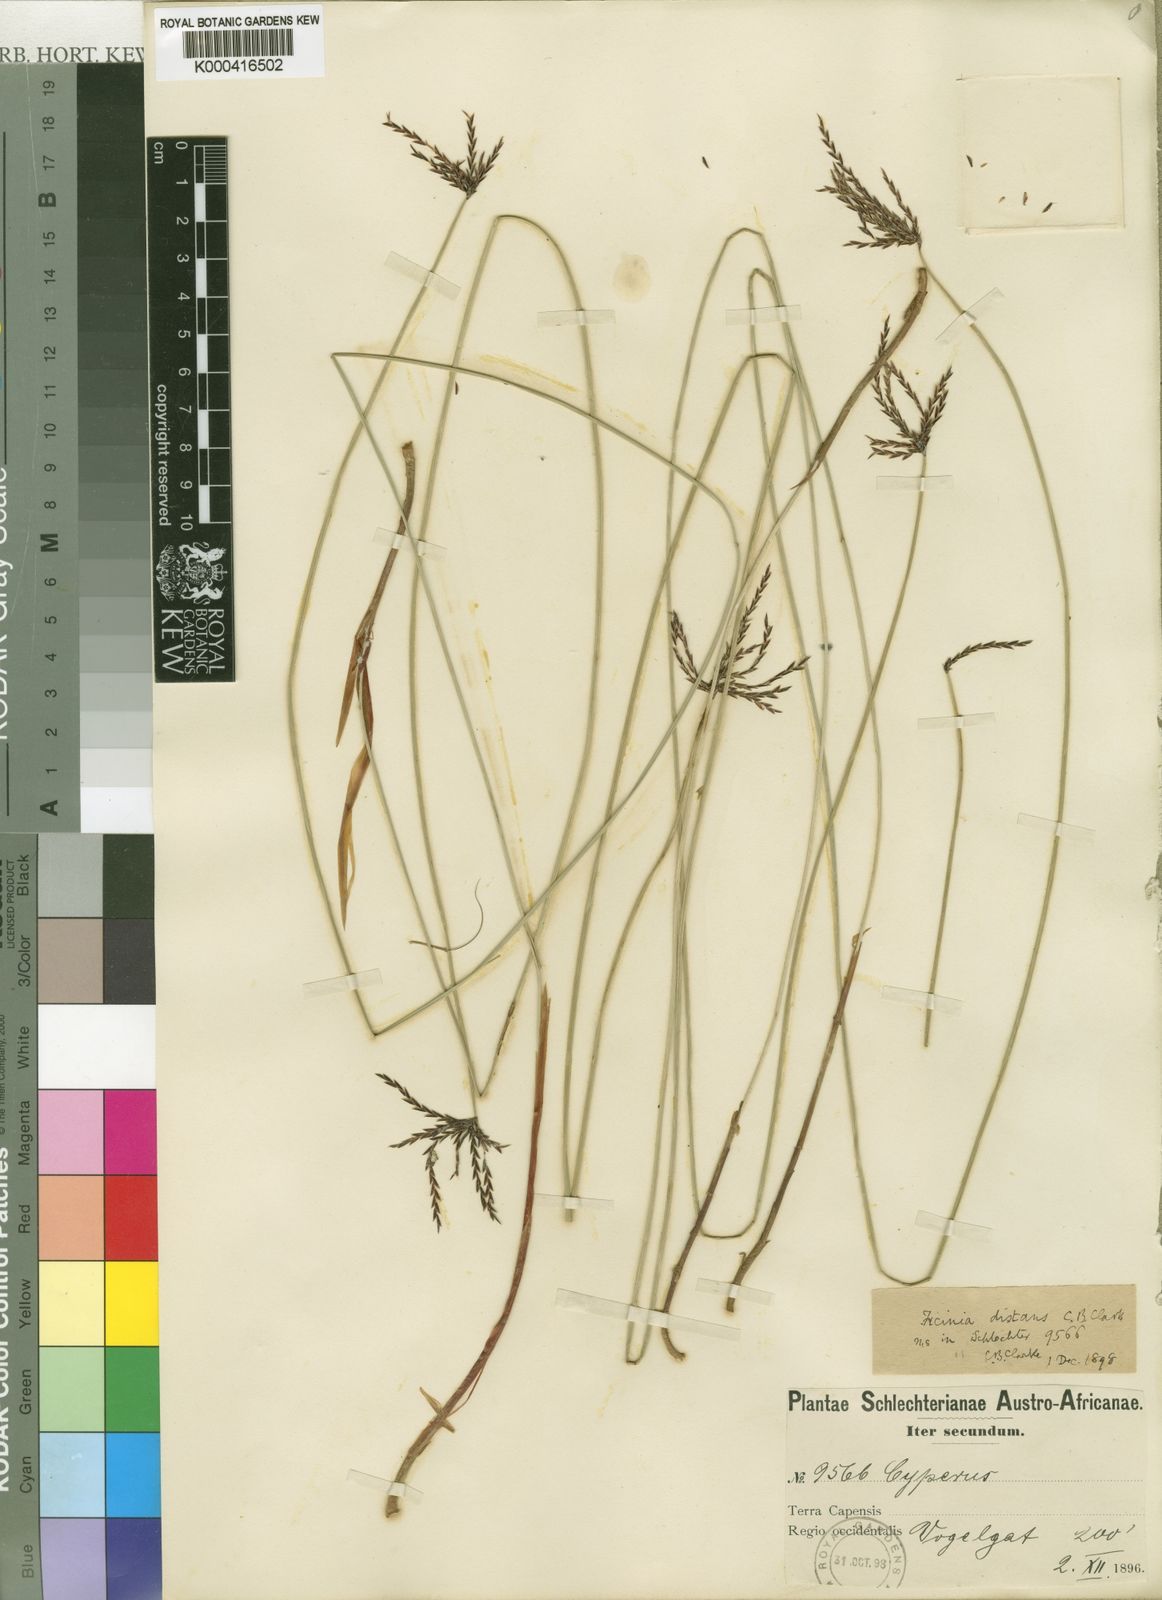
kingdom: Plantae
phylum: Tracheophyta
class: Liliopsida
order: Poales
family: Cyperaceae
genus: Ficinia
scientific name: Ficinia distans
